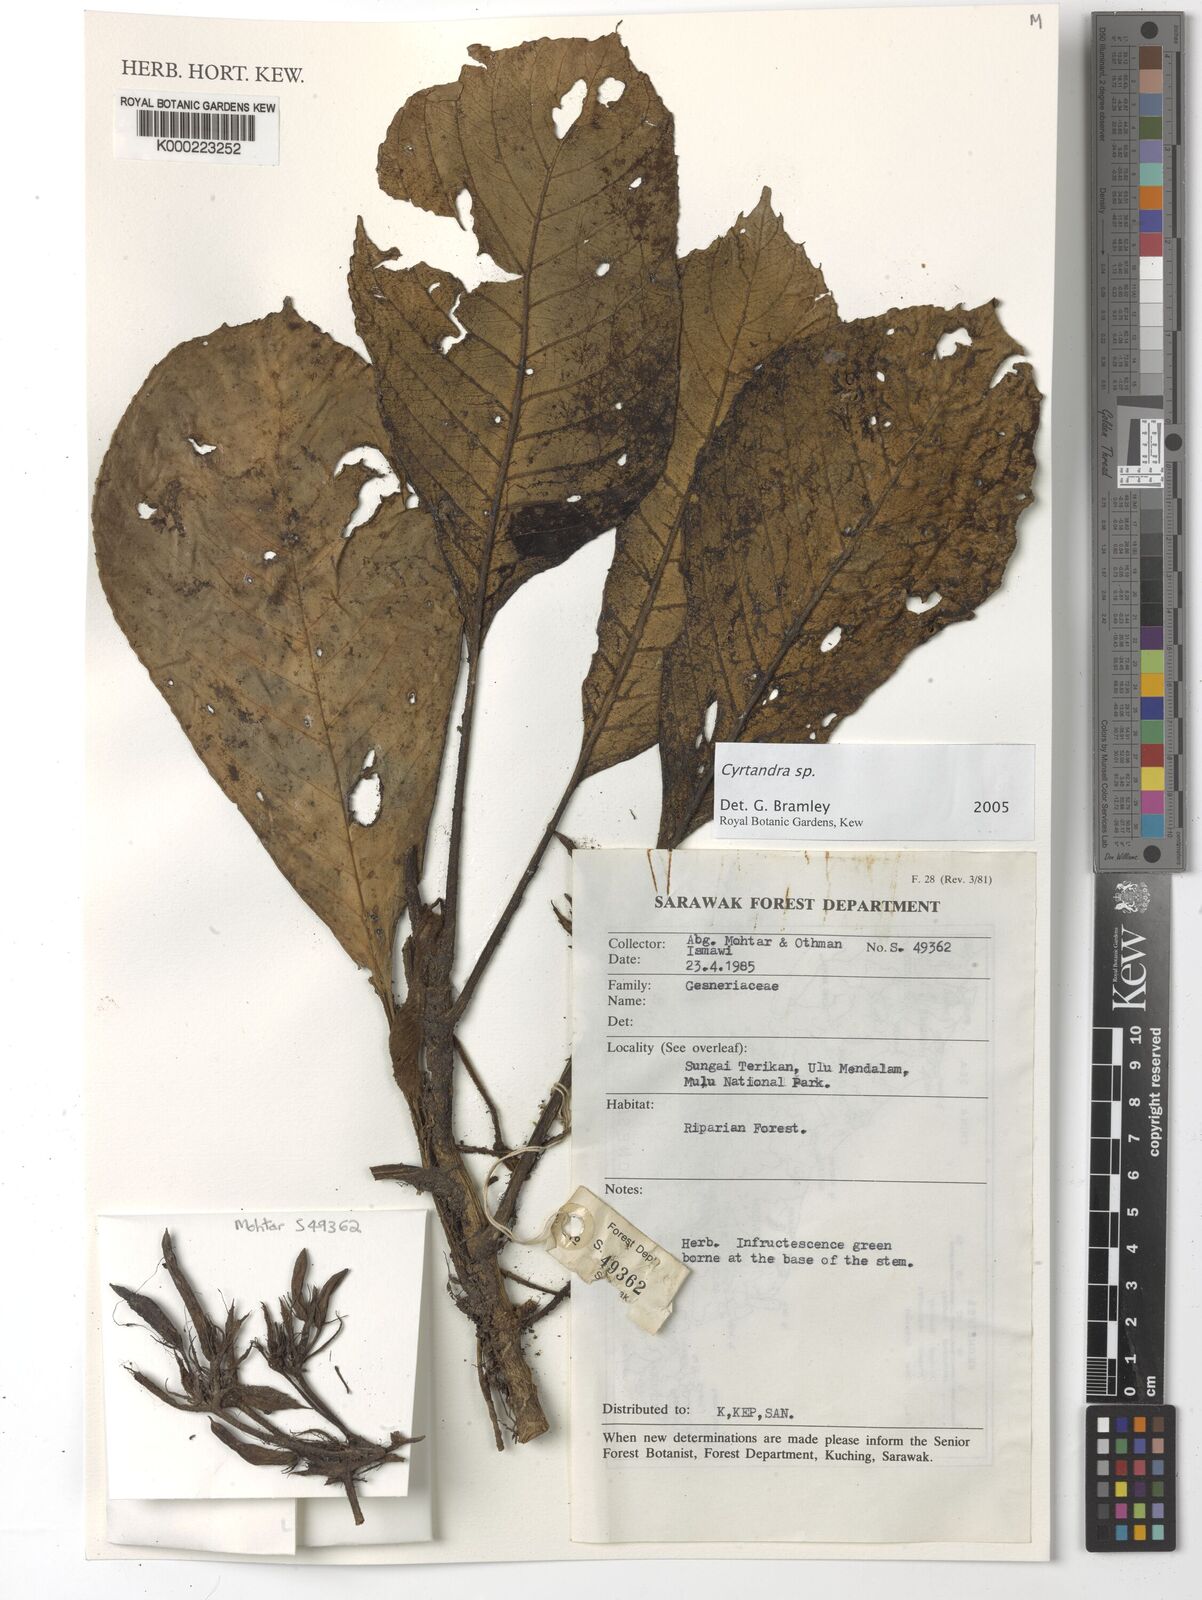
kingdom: Plantae
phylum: Tracheophyta
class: Magnoliopsida
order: Lamiales
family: Gesneriaceae
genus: Cyrtandra
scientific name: Cyrtandra
